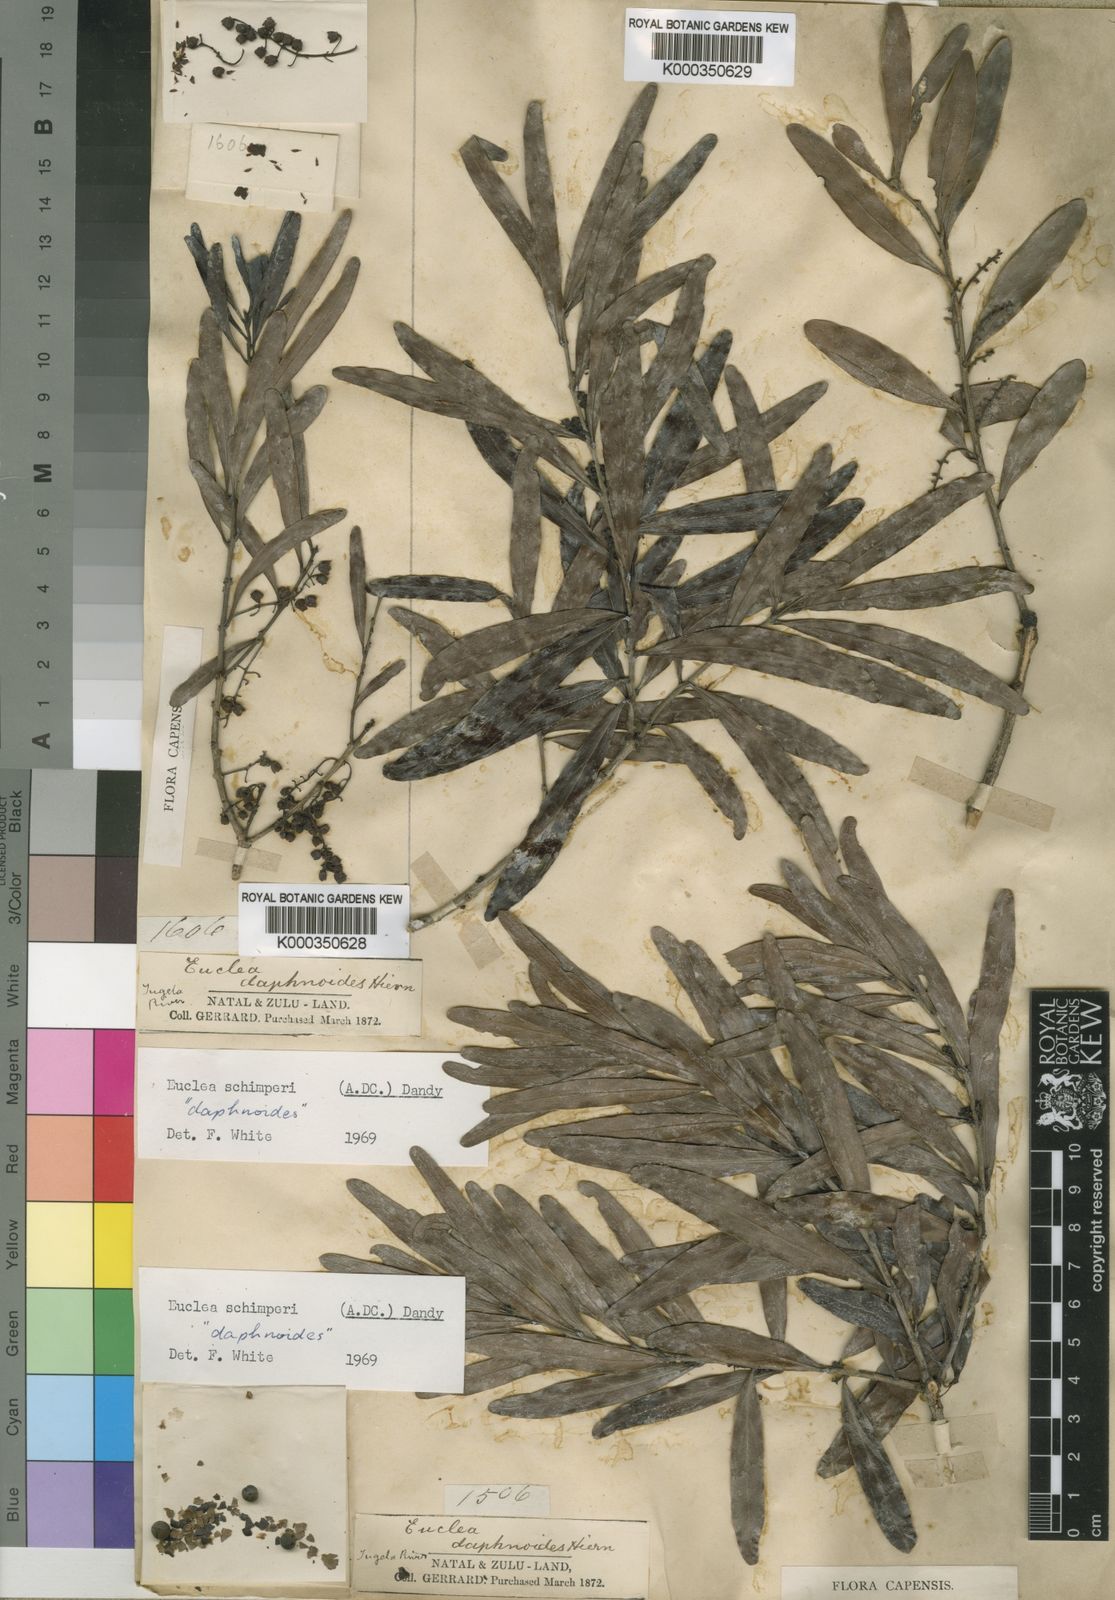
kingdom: Plantae
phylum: Tracheophyta
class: Magnoliopsida
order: Ericales
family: Ebenaceae
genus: Euclea
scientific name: Euclea racemosa
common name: Dune guarri
